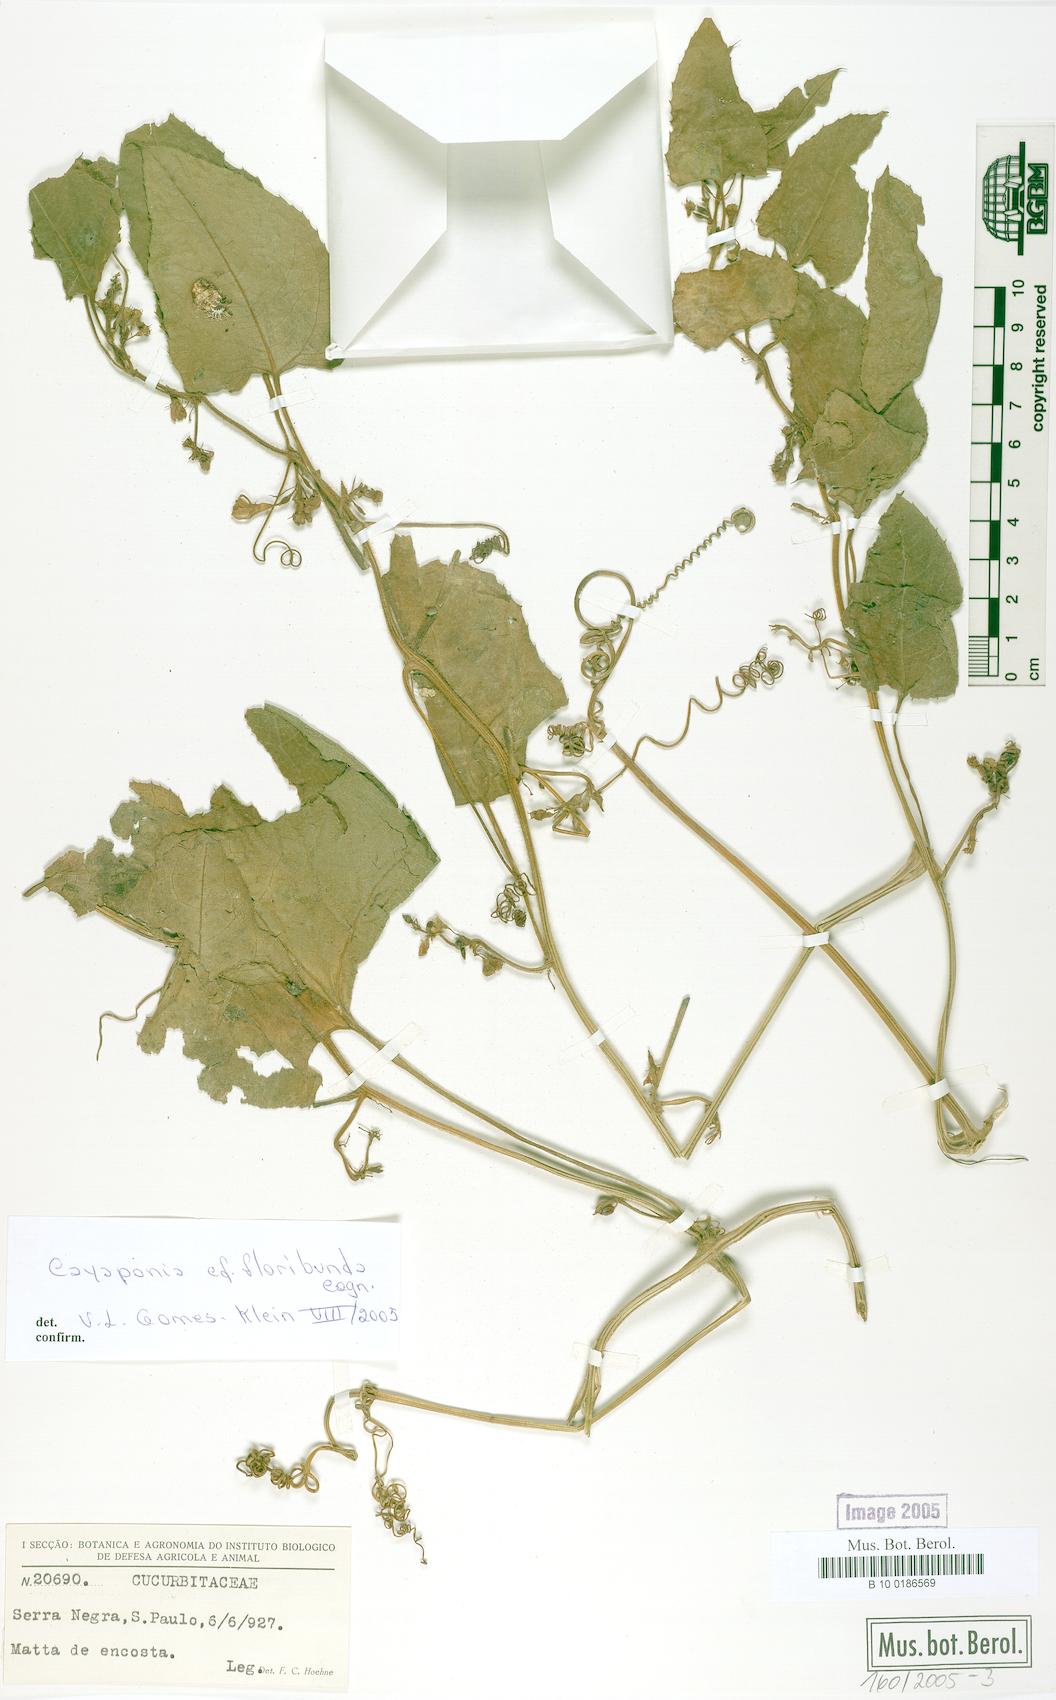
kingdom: Plantae
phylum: Tracheophyta
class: Magnoliopsida
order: Cucurbitales
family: Cucurbitaceae
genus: Cayaponia
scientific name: Cayaponia floribunda
